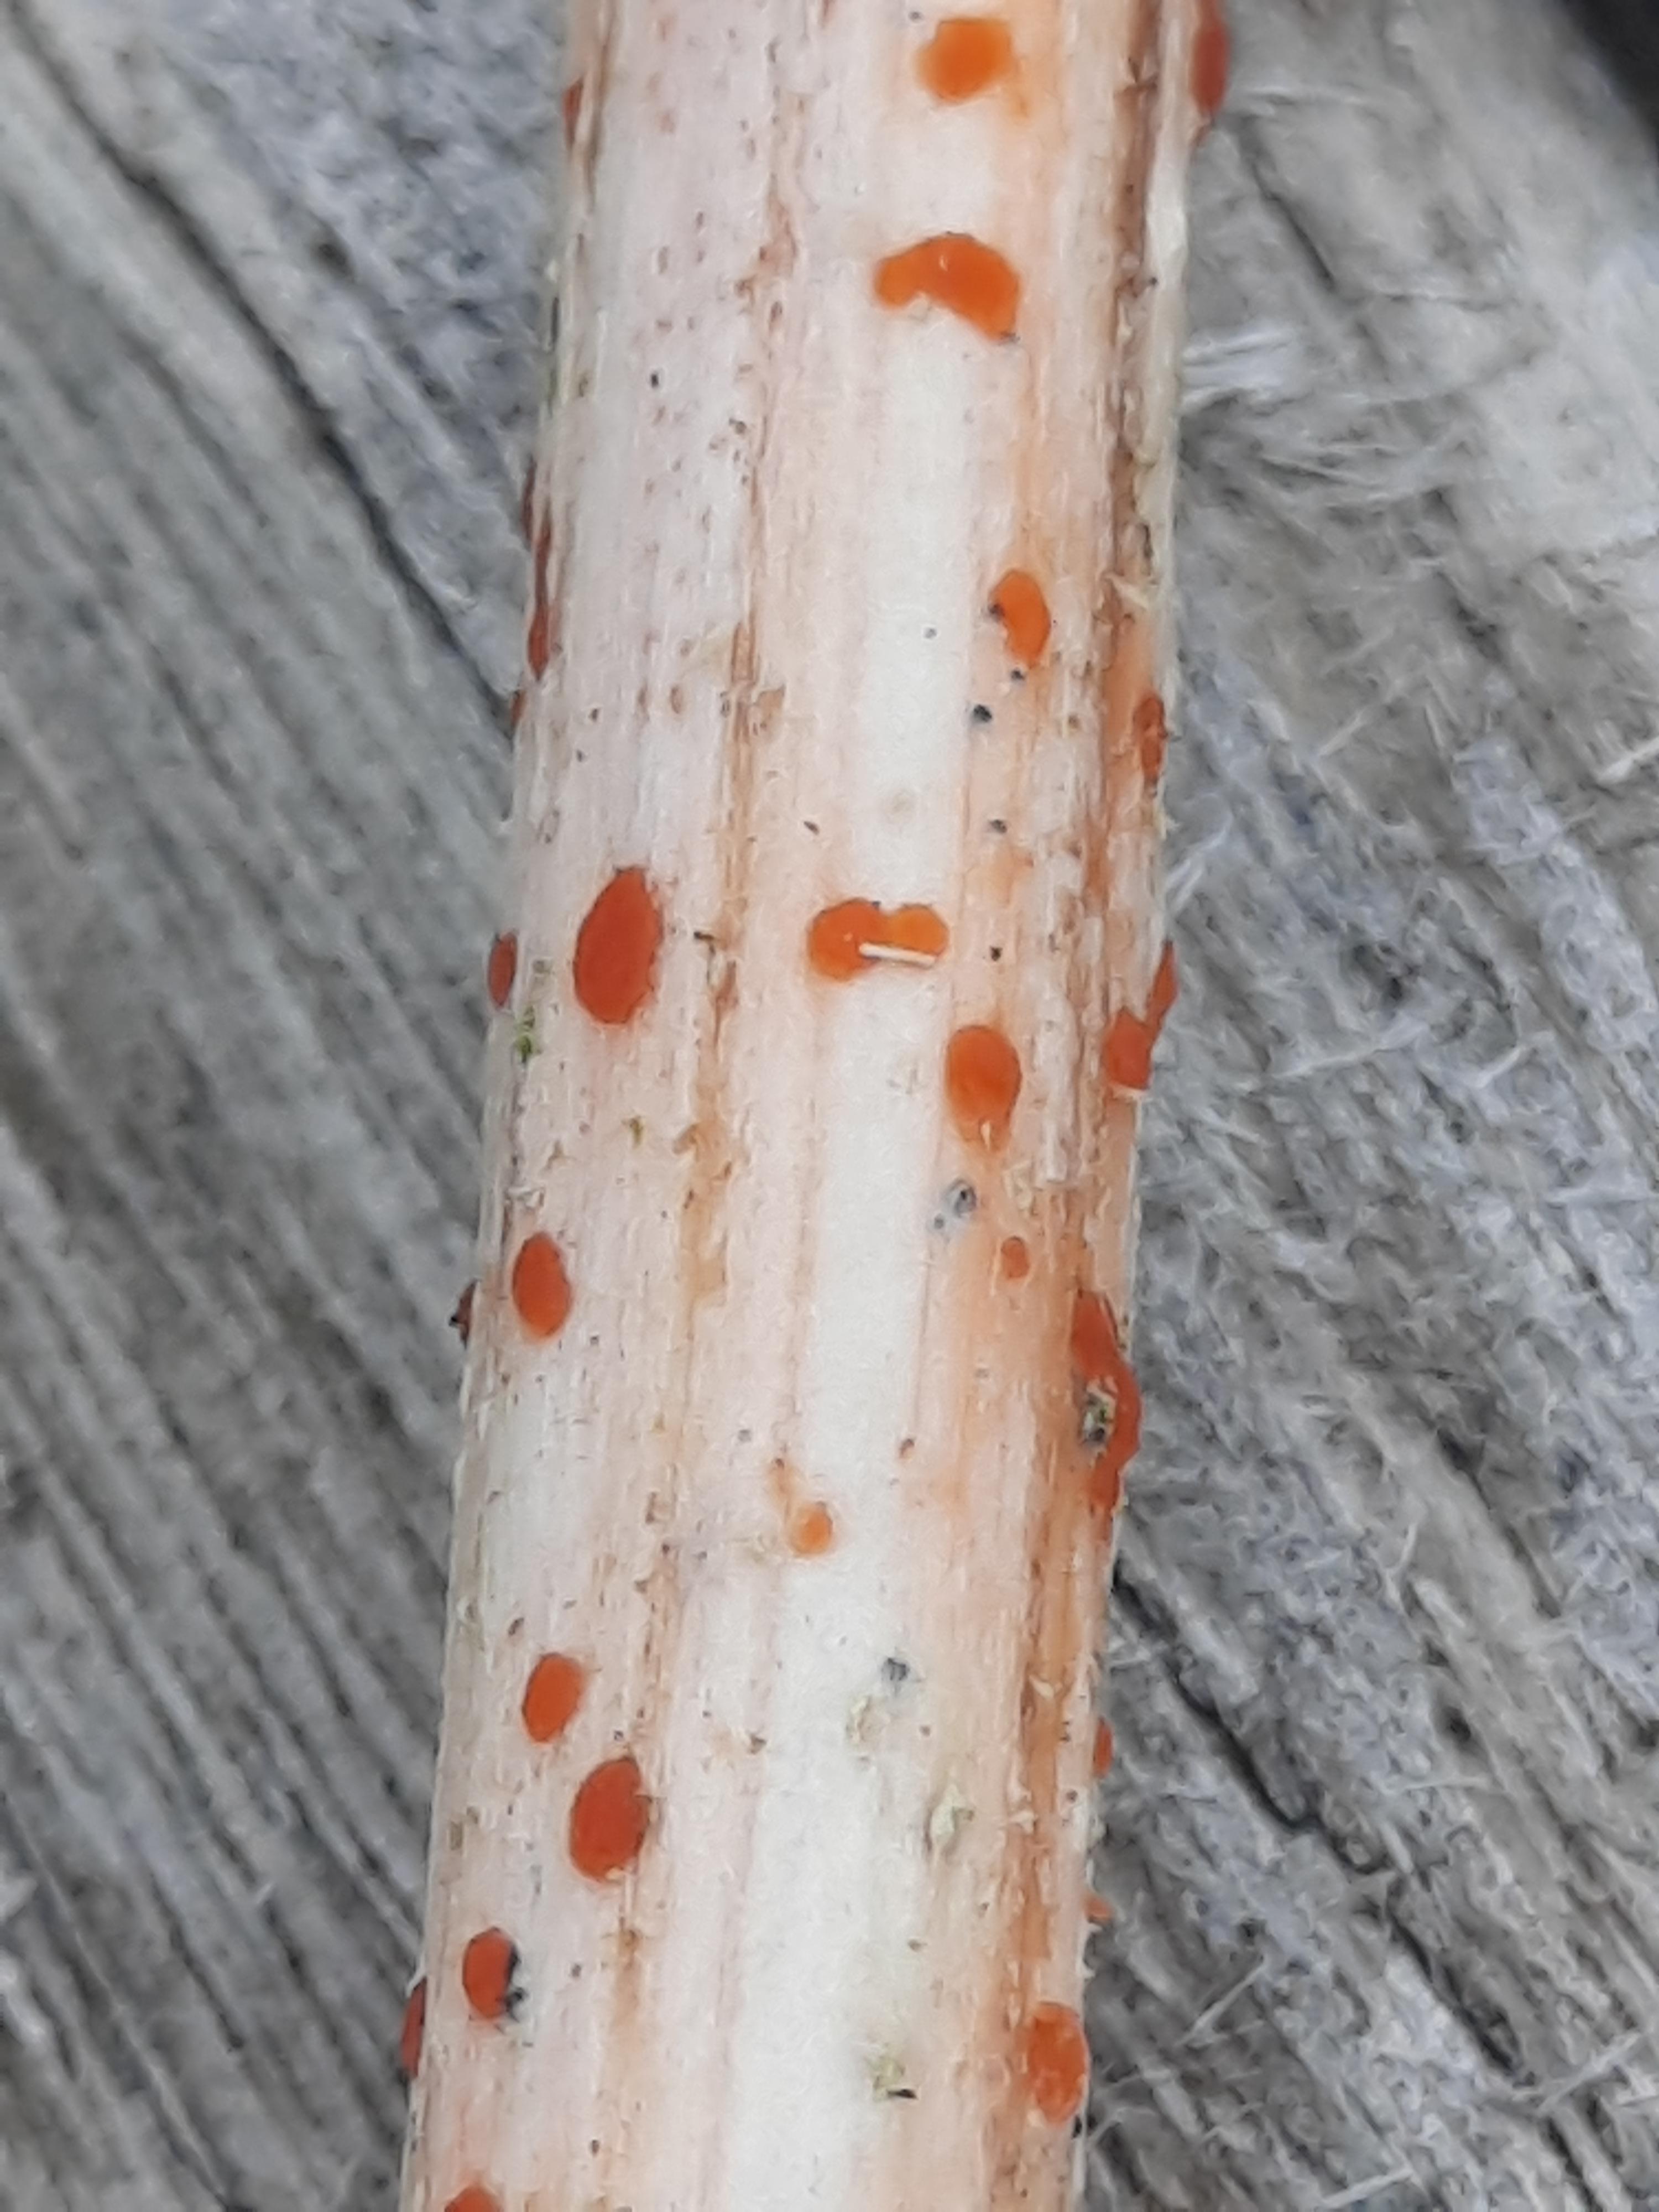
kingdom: Fungi
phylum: Ascomycota
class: Leotiomycetes
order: Helotiales
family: Calloriaceae
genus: Calloria
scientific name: Calloria urticae
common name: nælde-orangeskive
